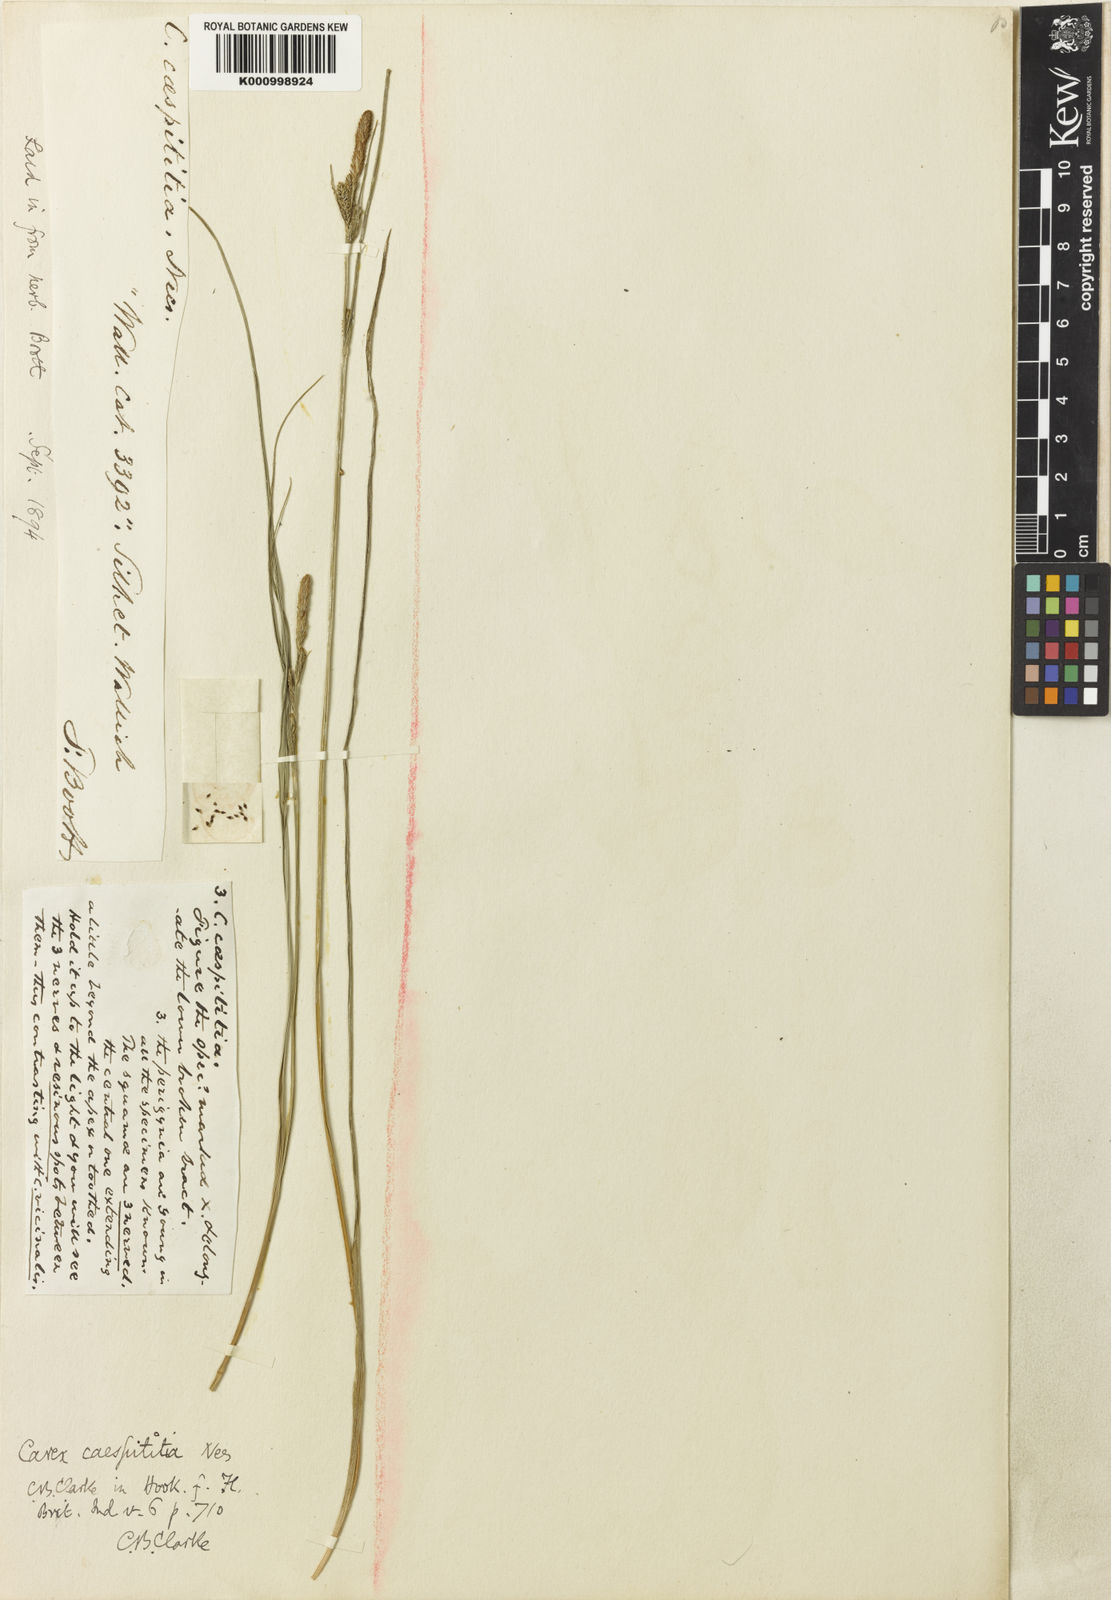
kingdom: Plantae
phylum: Tracheophyta
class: Liliopsida
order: Poales
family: Cyperaceae
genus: Carex
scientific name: Carex caespititia
